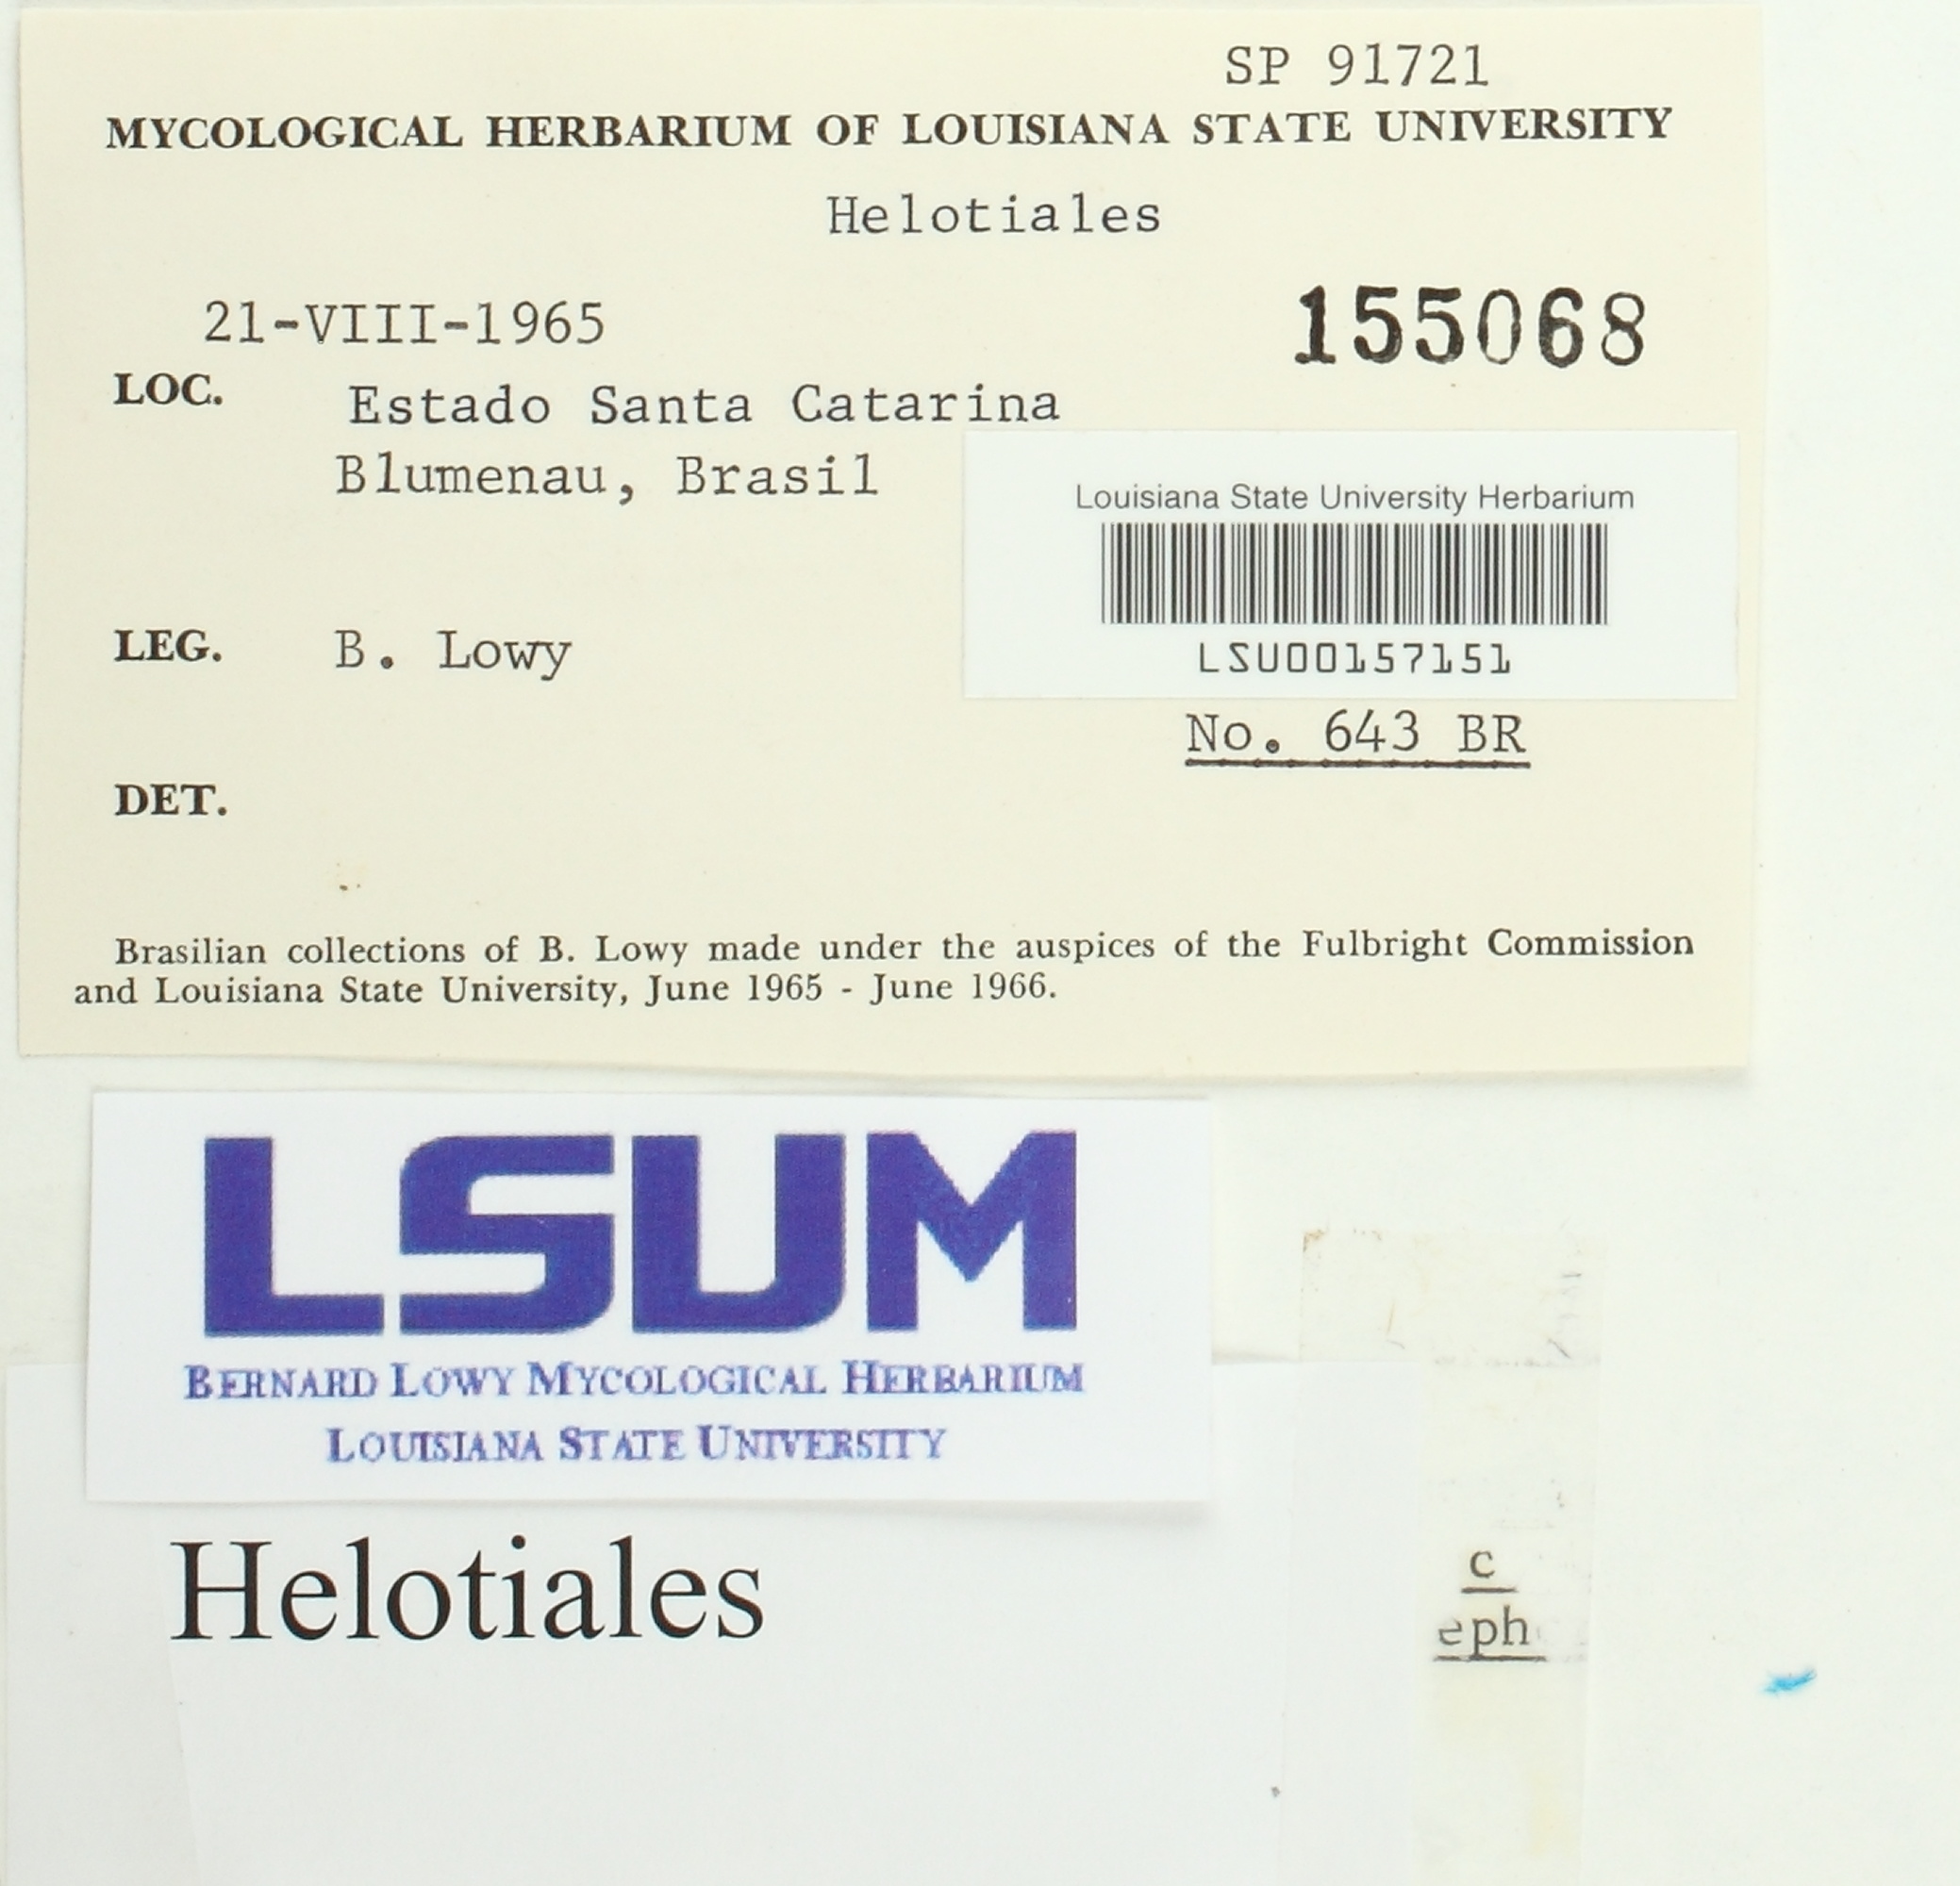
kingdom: Fungi
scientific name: Fungi
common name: Fungi
